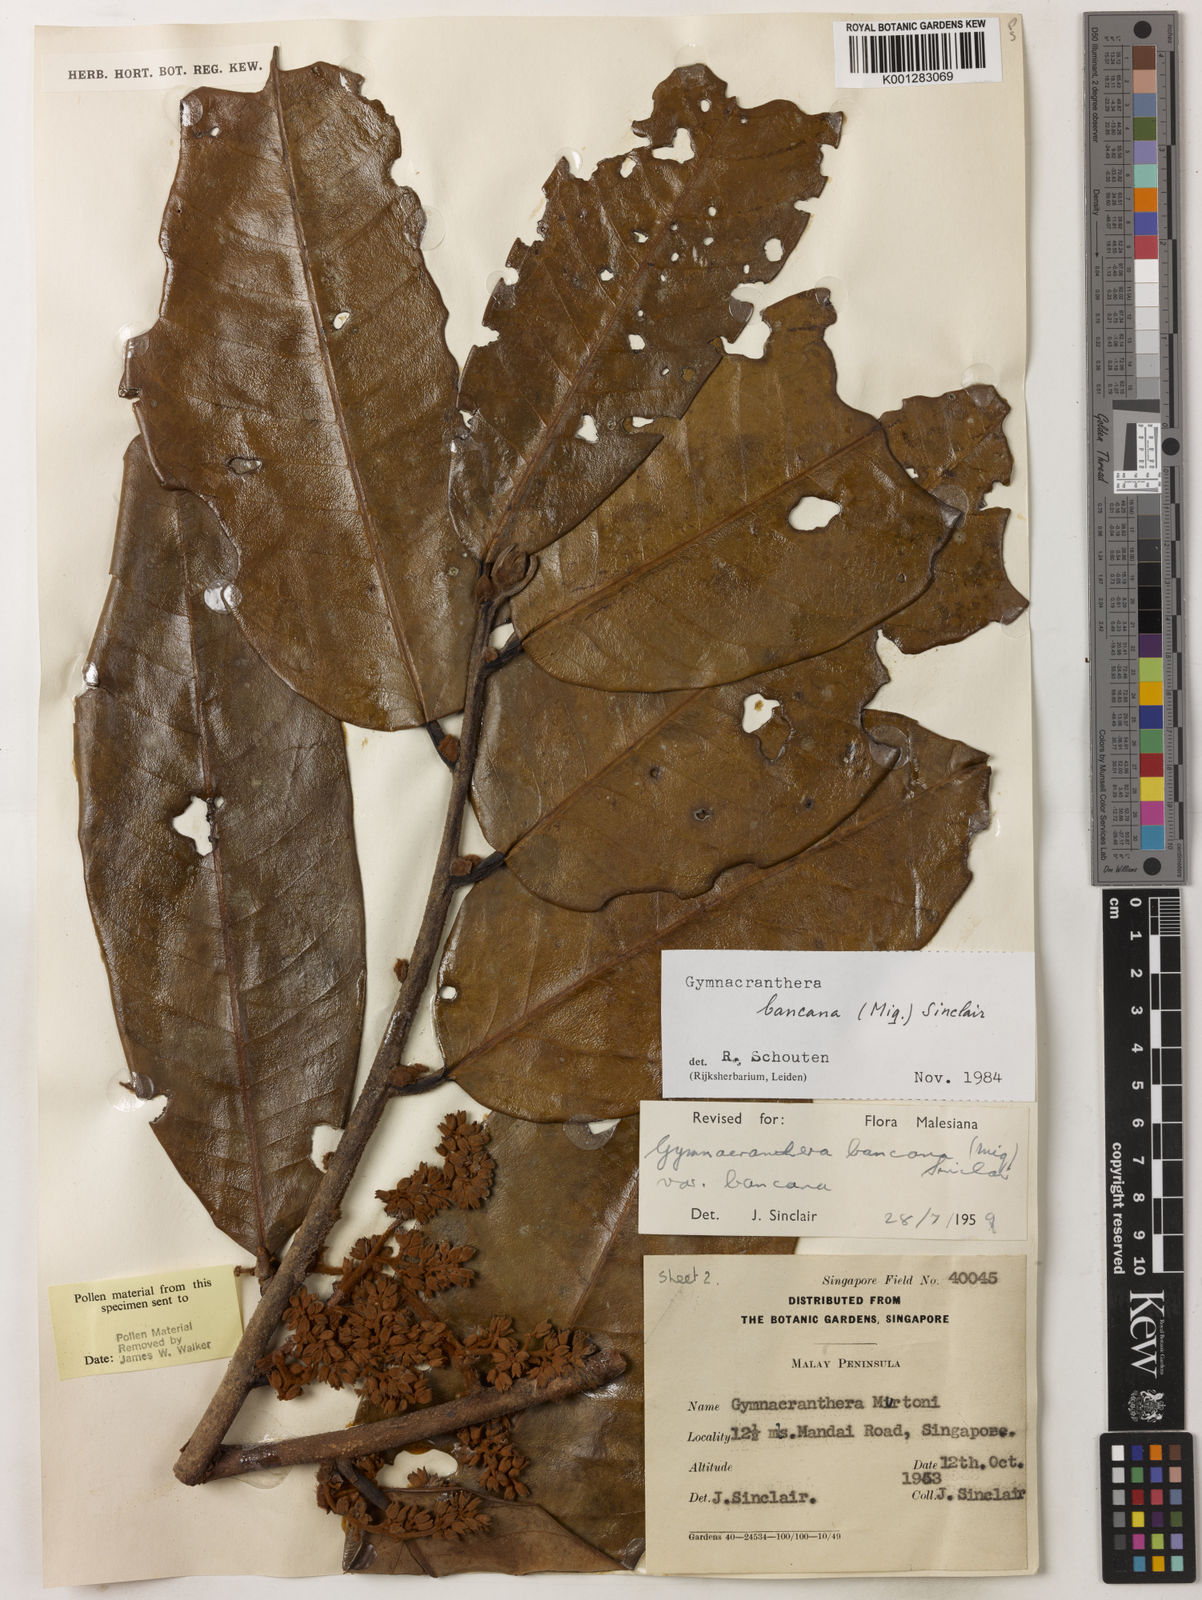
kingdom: Plantae
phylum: Tracheophyta
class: Magnoliopsida
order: Magnoliales
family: Myristicaceae
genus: Gymnacranthera
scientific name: Gymnacranthera bancana
